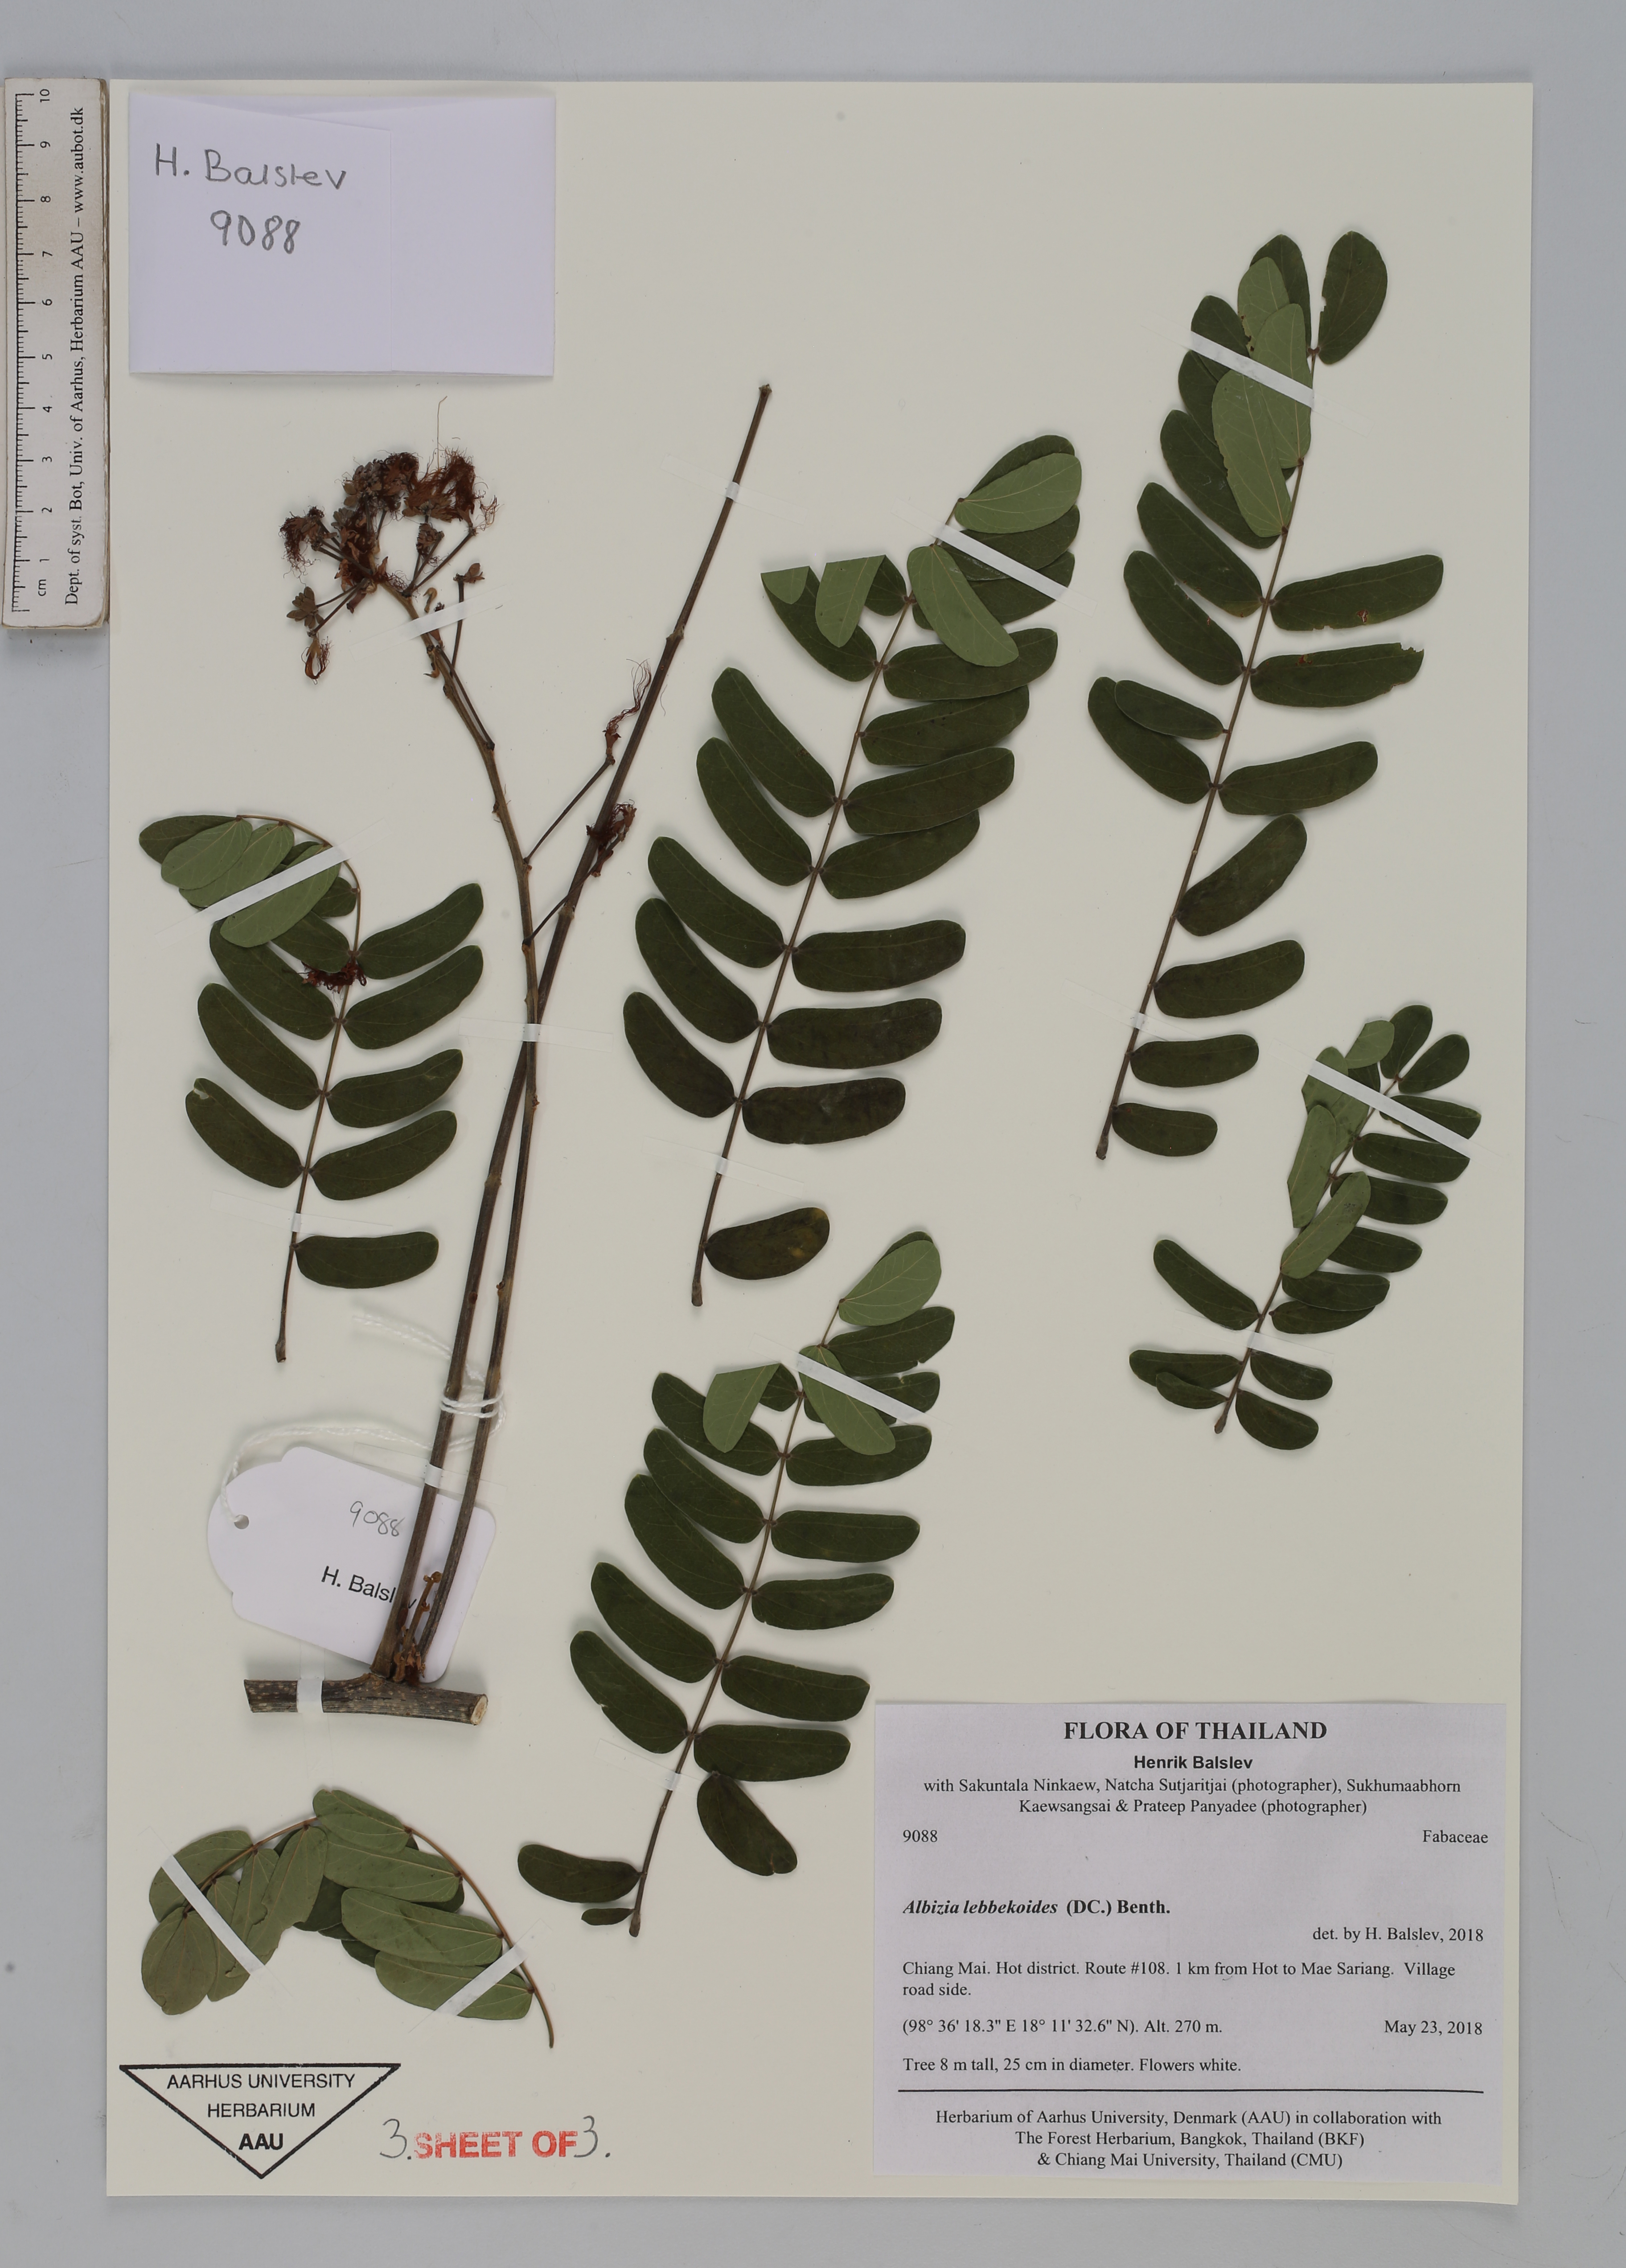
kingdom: Plantae
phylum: Tracheophyta
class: Magnoliopsida
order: Fabales
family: Fabaceae
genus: Albizia
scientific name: Albizia lebbekoides
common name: Indian albizia
